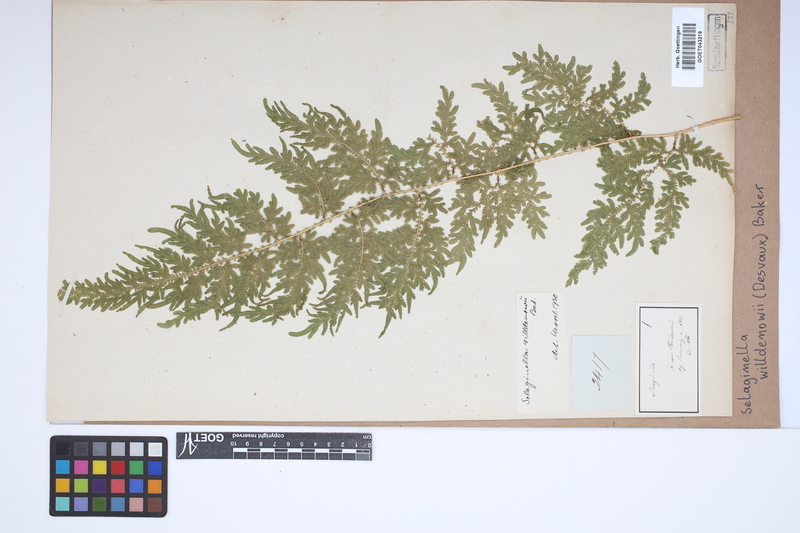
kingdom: Plantae
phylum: Tracheophyta
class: Lycopodiopsida
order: Selaginellales
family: Selaginellaceae
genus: Selaginella
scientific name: Selaginella willdenowii
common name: Willdenow's spikemoss
